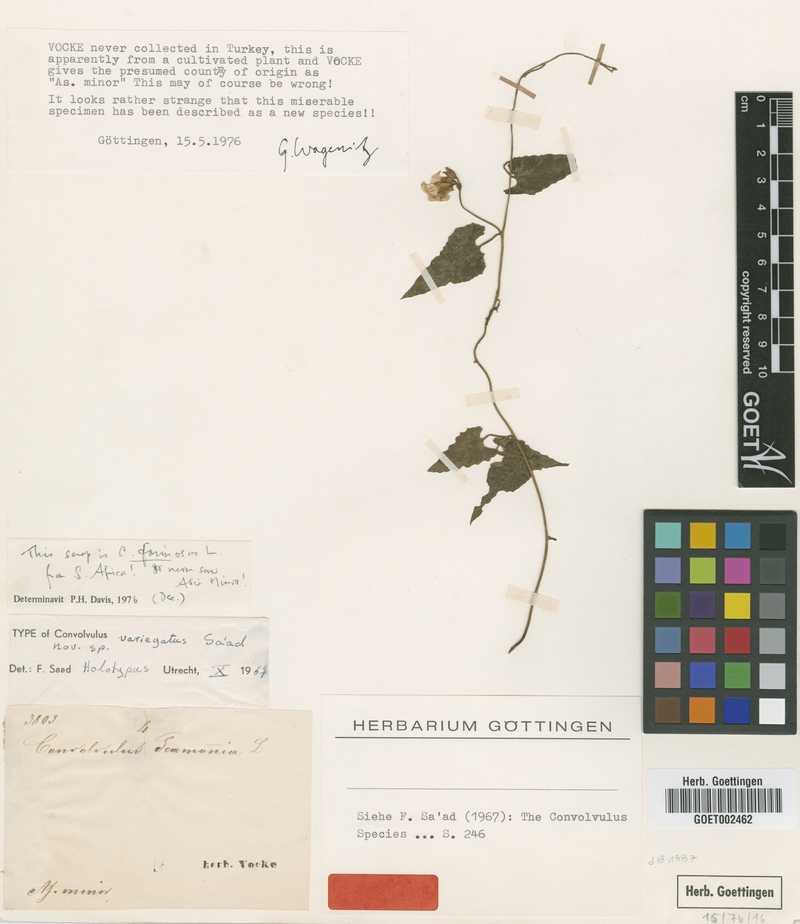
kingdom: Plantae
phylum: Tracheophyta
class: Magnoliopsida
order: Solanales
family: Convolvulaceae
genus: Convolvulus
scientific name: Convolvulus farinosus
